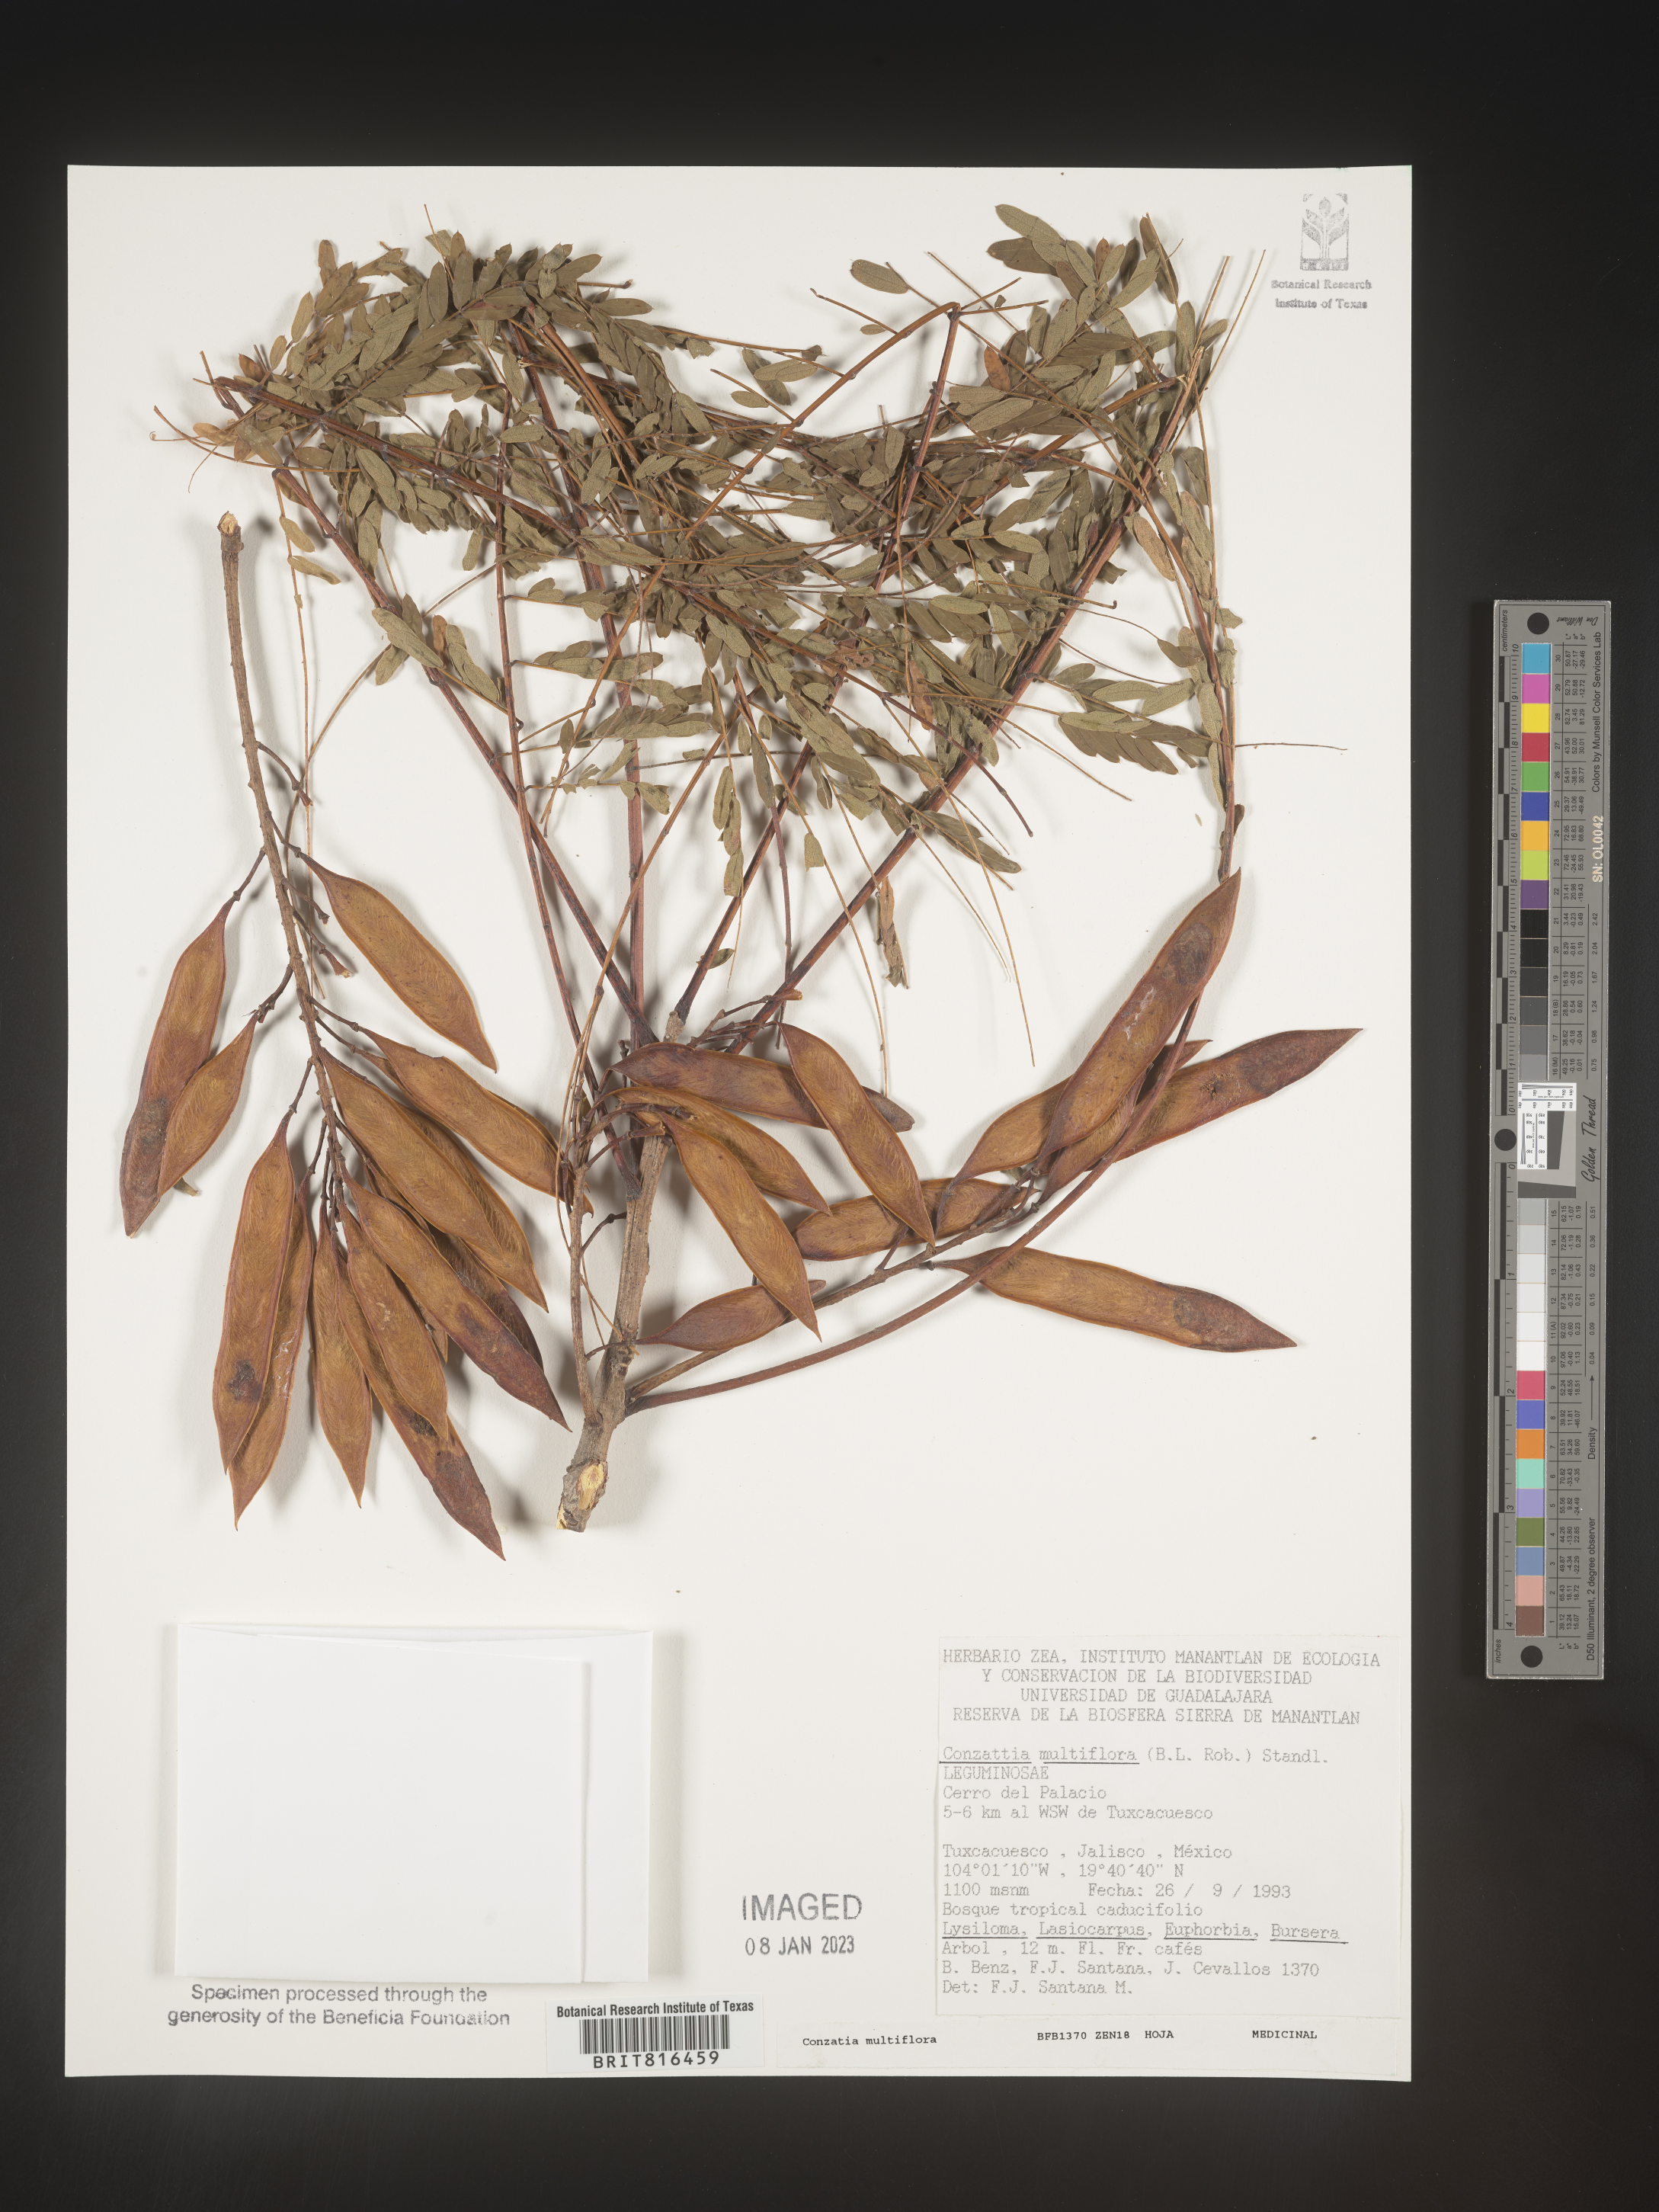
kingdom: Plantae
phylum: Tracheophyta
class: Magnoliopsida
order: Fabales
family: Fabaceae
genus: Conzattia
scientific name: Conzattia
